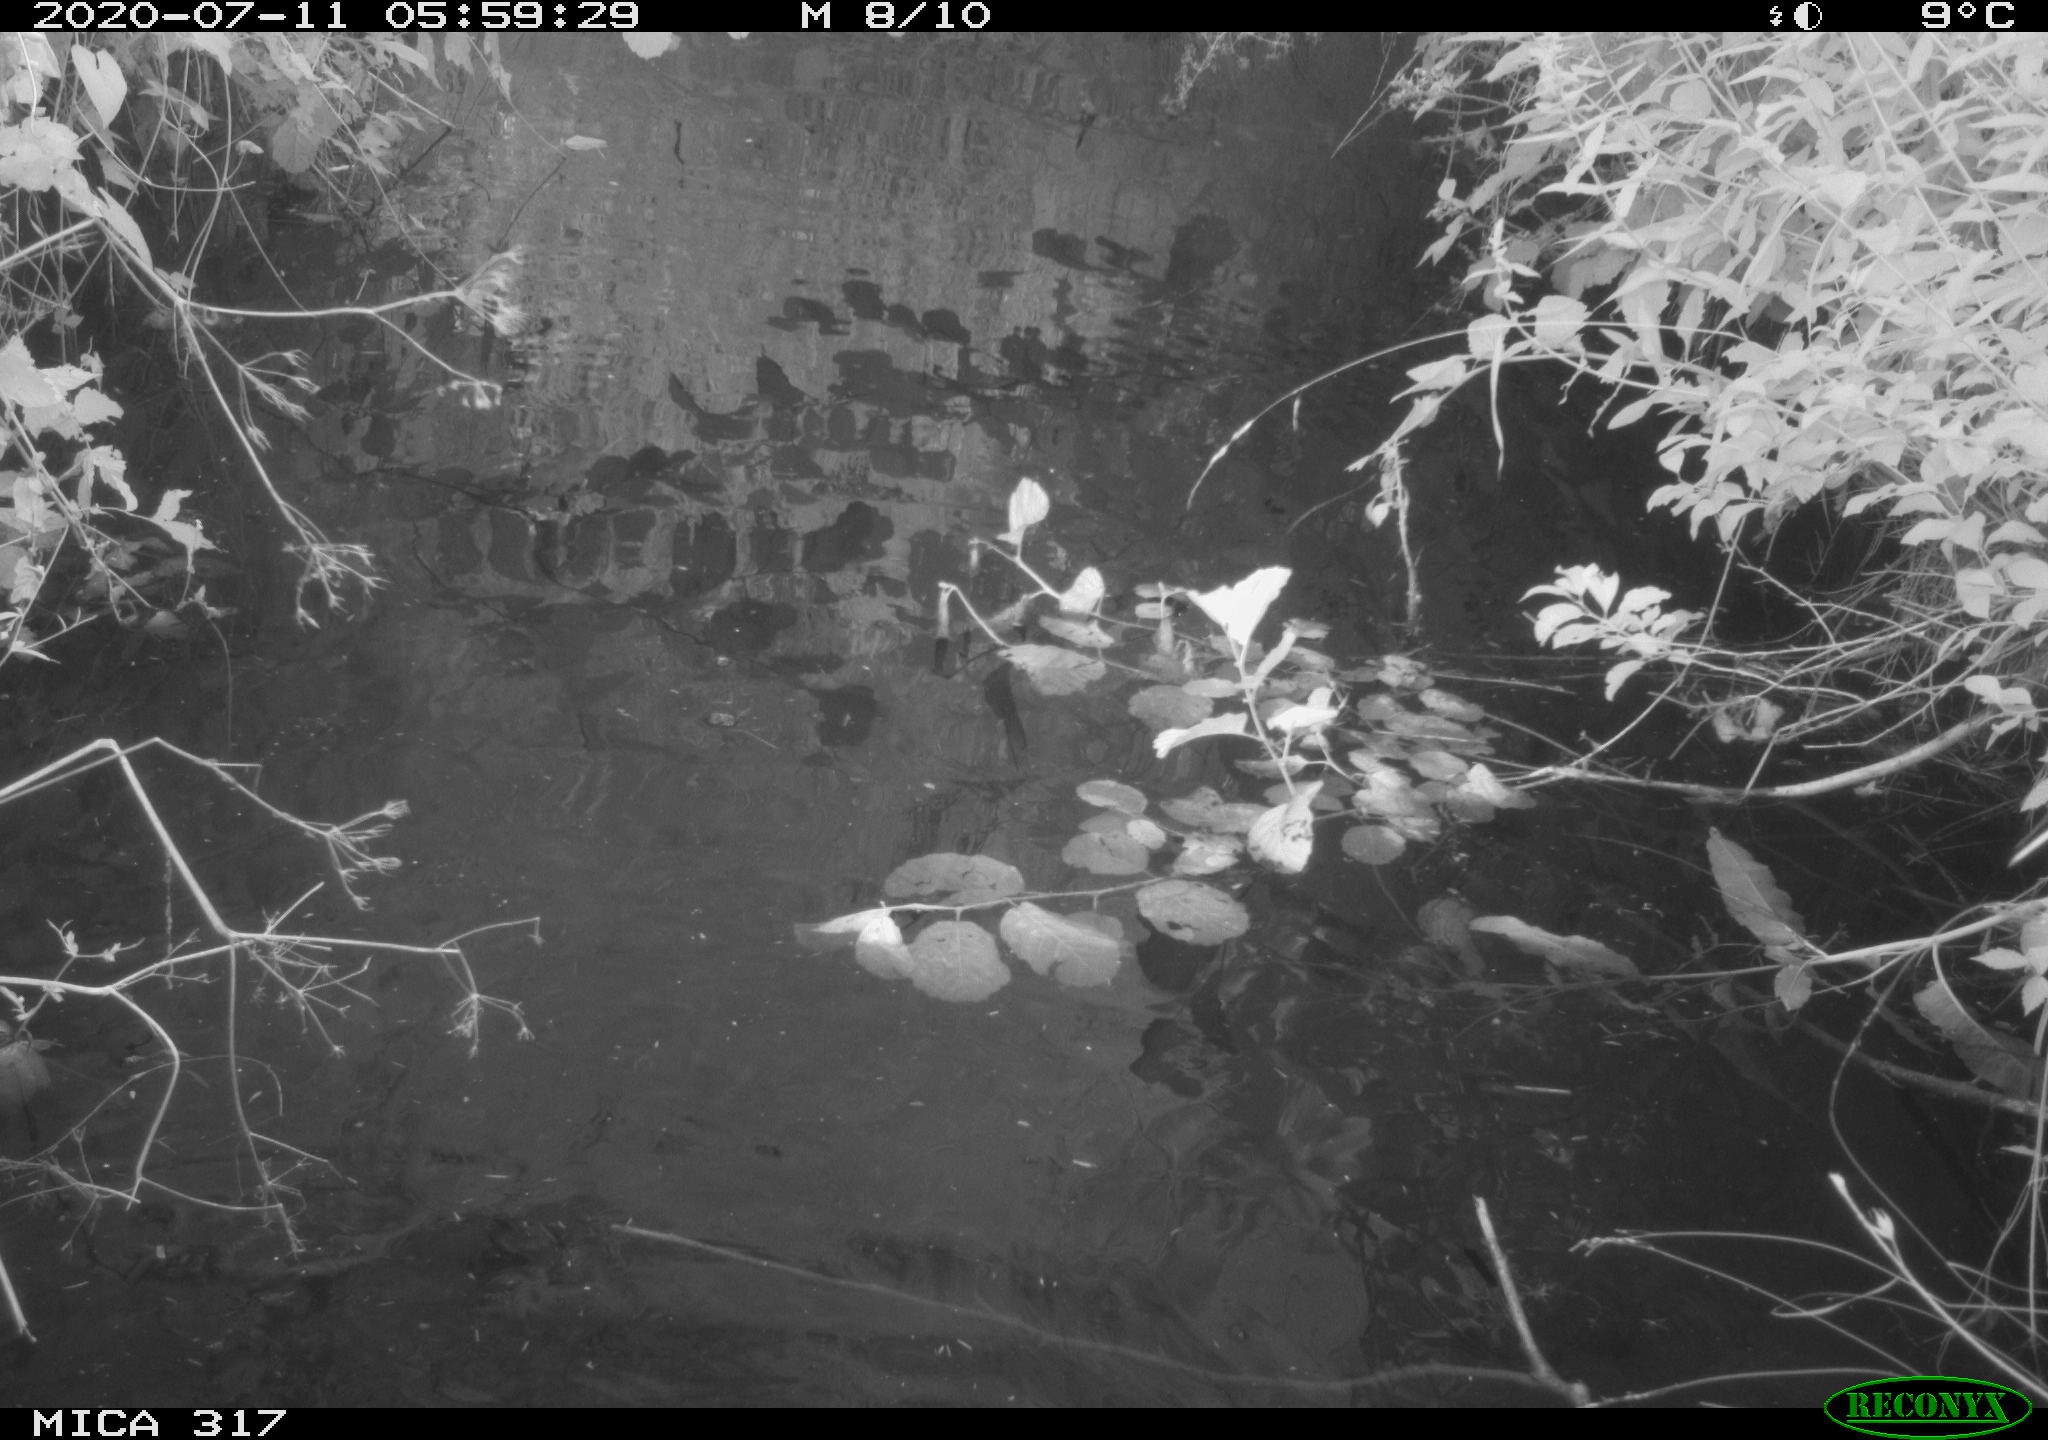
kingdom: Animalia
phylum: Chordata
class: Aves
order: Anseriformes
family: Anatidae
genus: Anas
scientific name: Anas platyrhynchos
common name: Mallard
